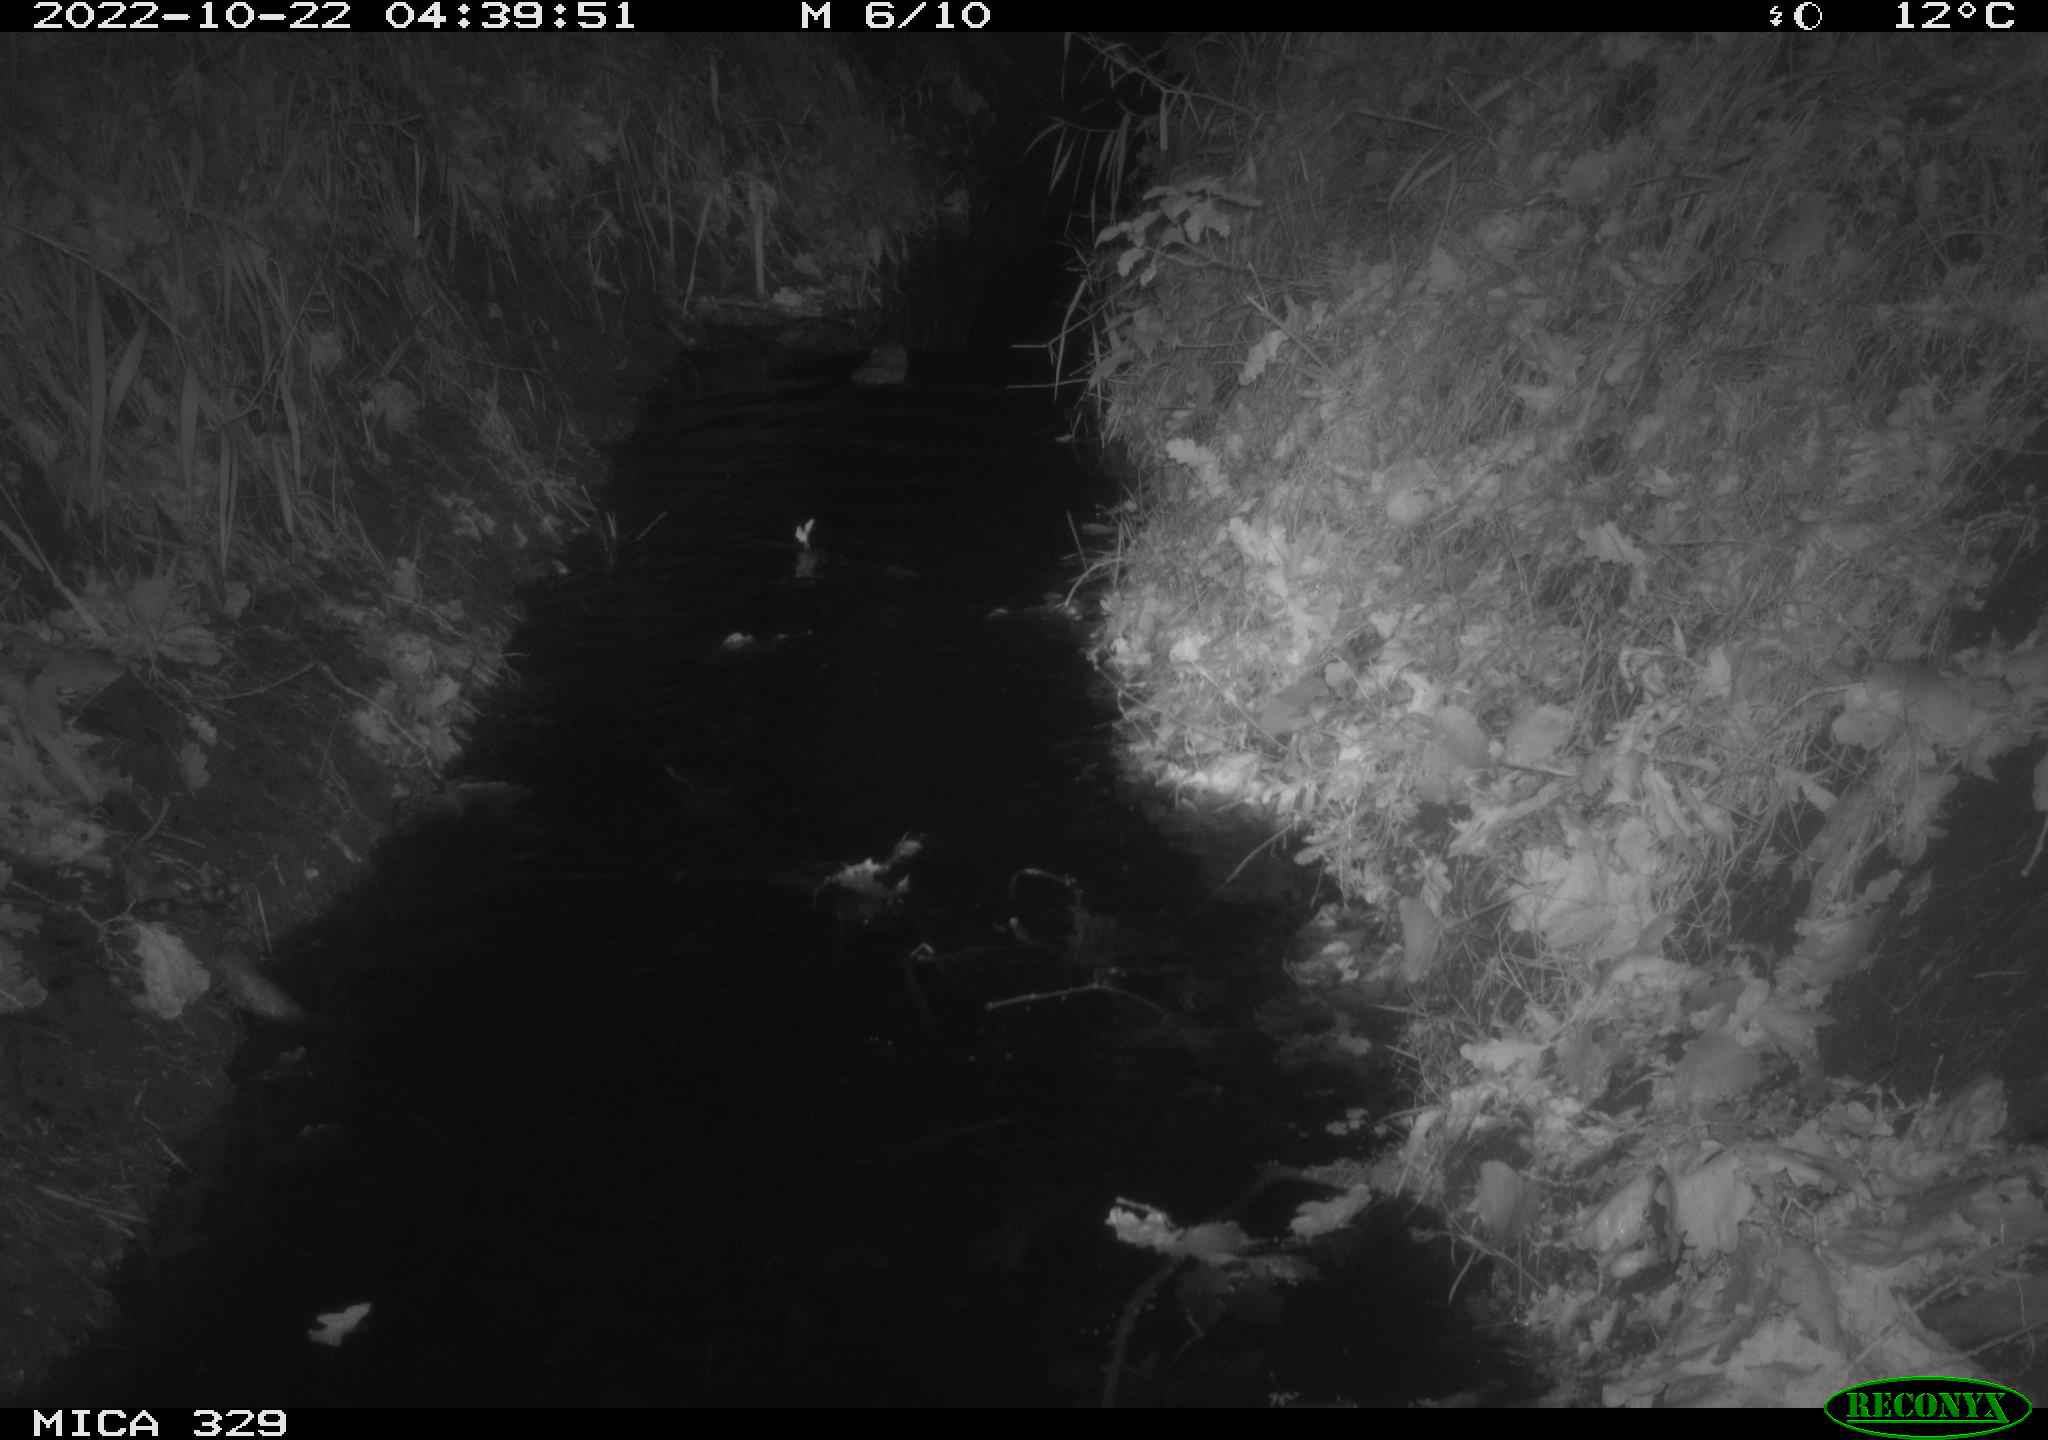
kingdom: Animalia
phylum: Chordata
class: Mammalia
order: Rodentia
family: Cricetidae
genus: Ondatra
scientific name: Ondatra zibethicus
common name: Muskrat
